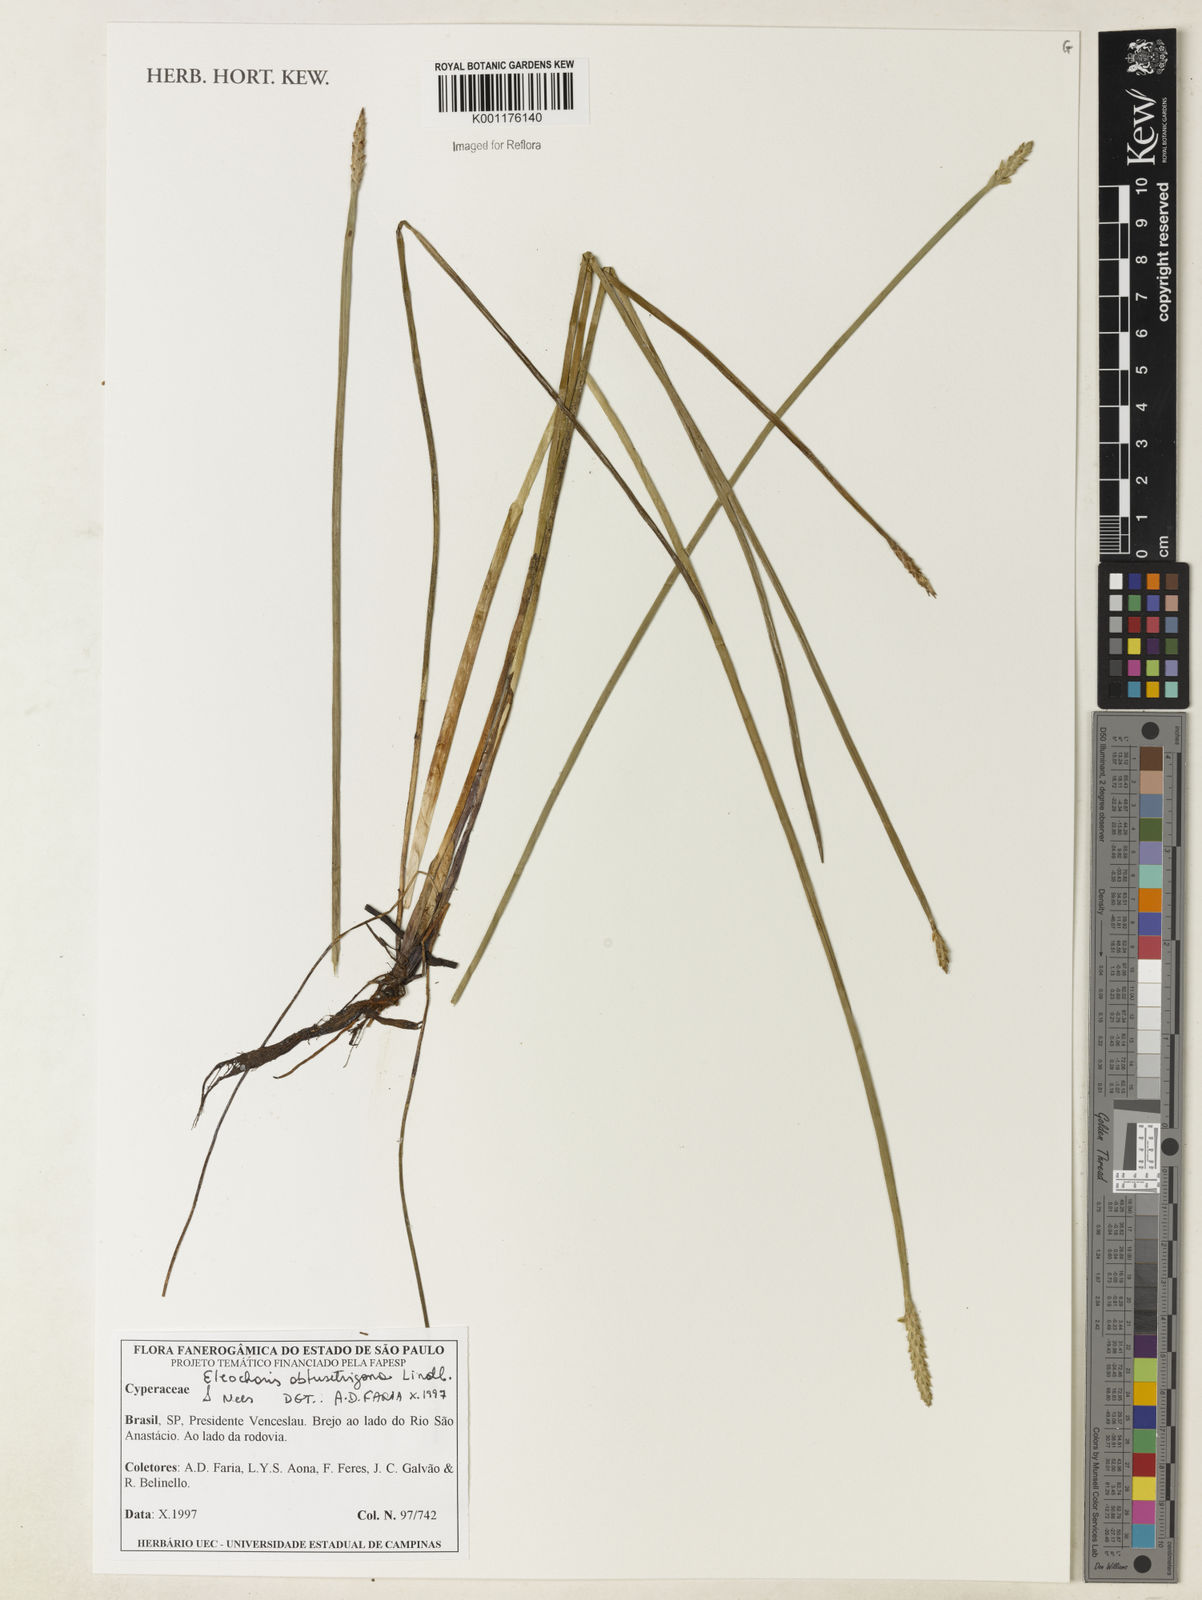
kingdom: Plantae
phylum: Tracheophyta
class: Liliopsida
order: Poales
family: Cyperaceae
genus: Eleocharis
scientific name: Eleocharis acutangula
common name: Acute spikerush
